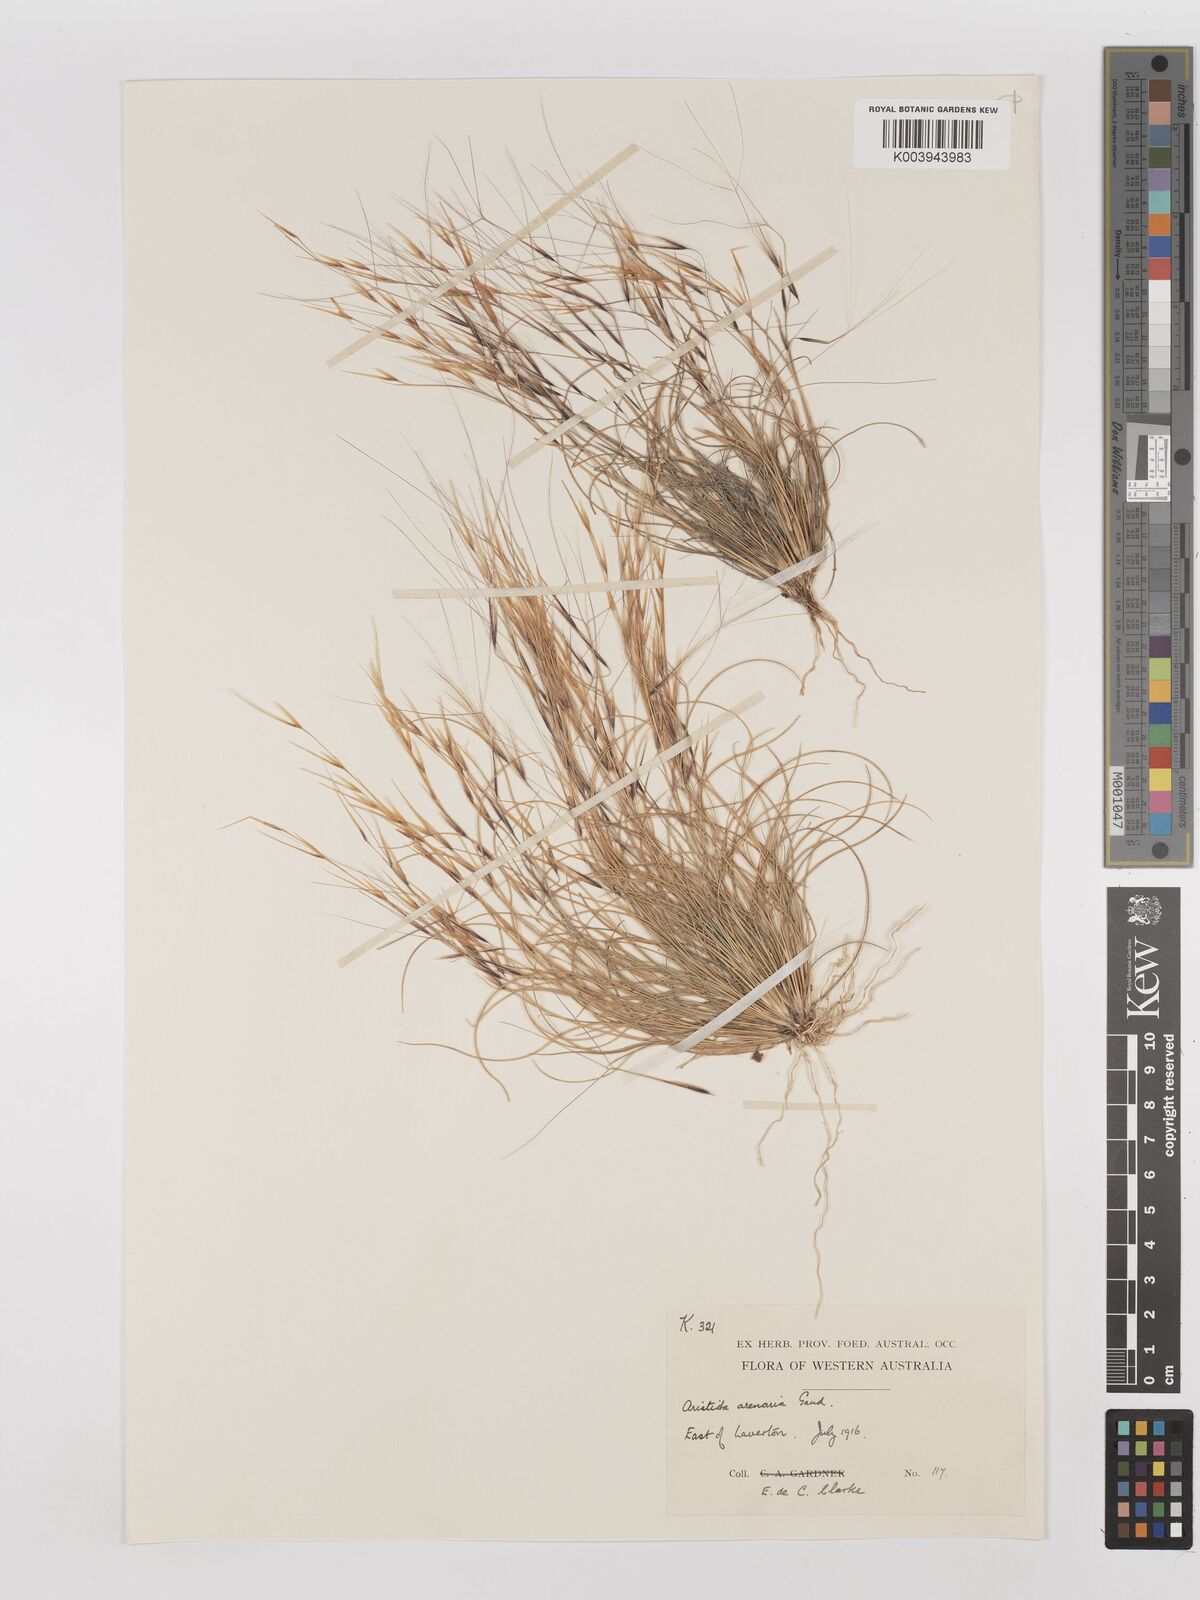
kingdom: Plantae
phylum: Tracheophyta
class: Liliopsida
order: Poales
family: Poaceae
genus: Aristida
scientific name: Aristida contorta
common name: Bunch kerosene grass
